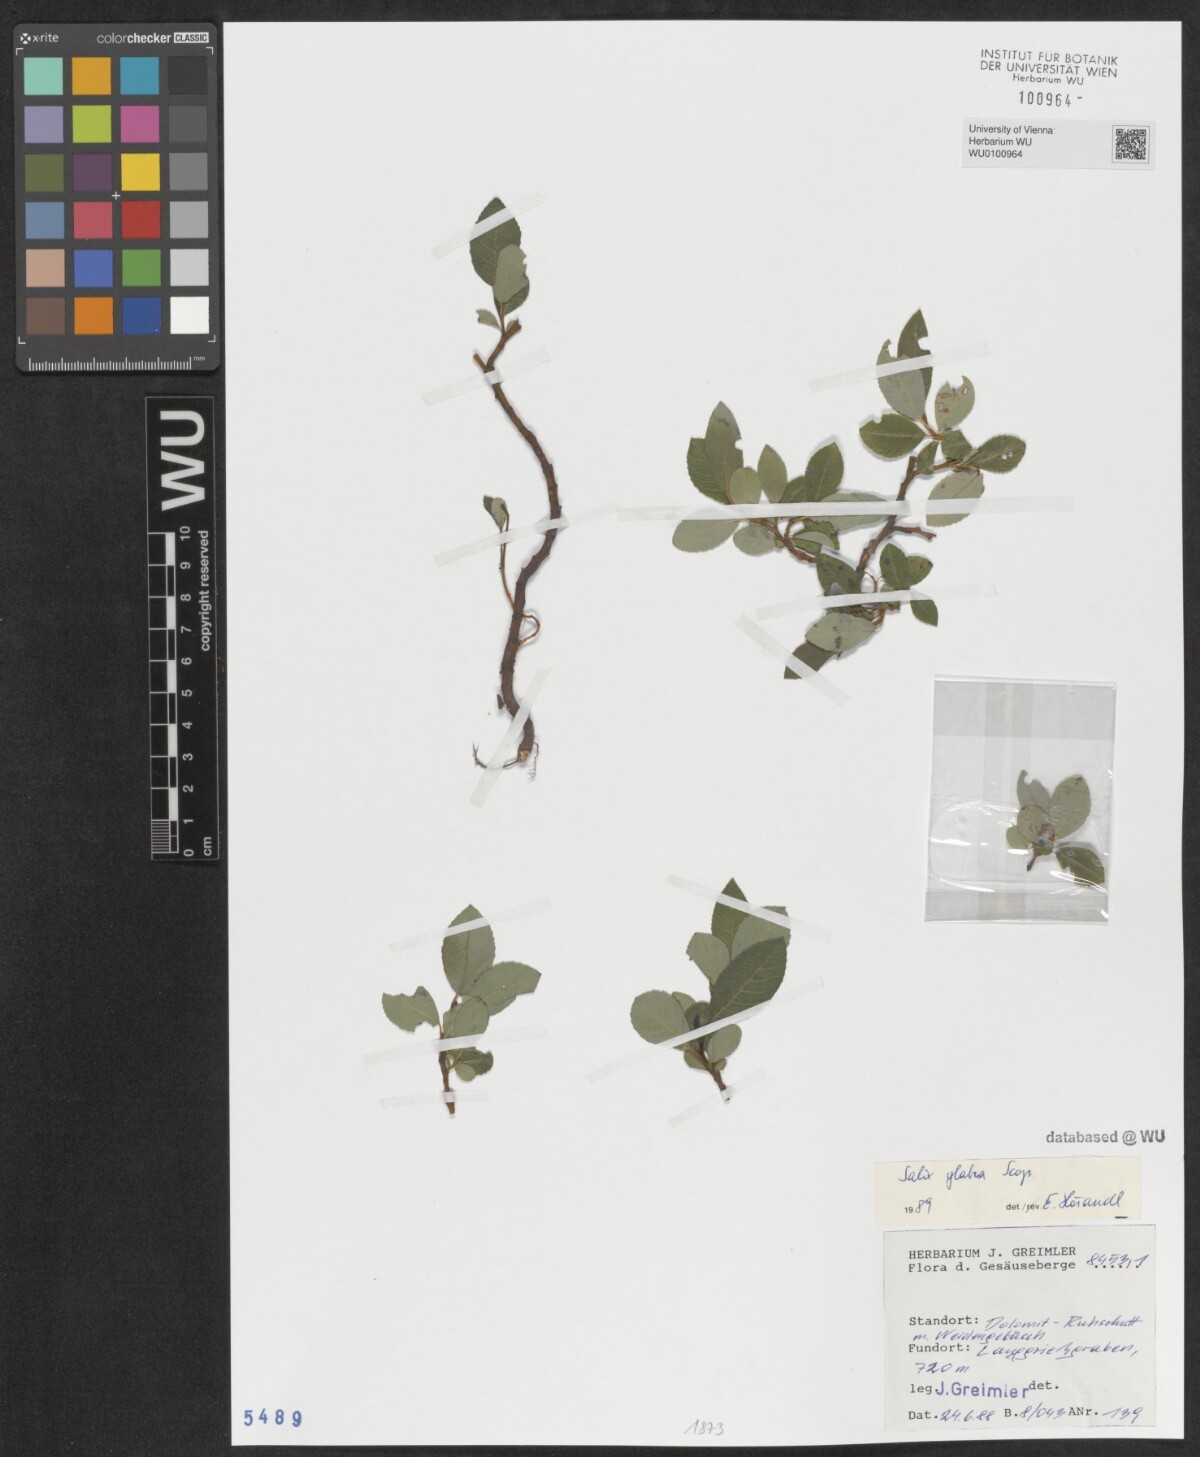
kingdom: Plantae
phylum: Tracheophyta
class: Magnoliopsida
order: Malpighiales
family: Salicaceae
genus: Salix
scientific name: Salix glabra
